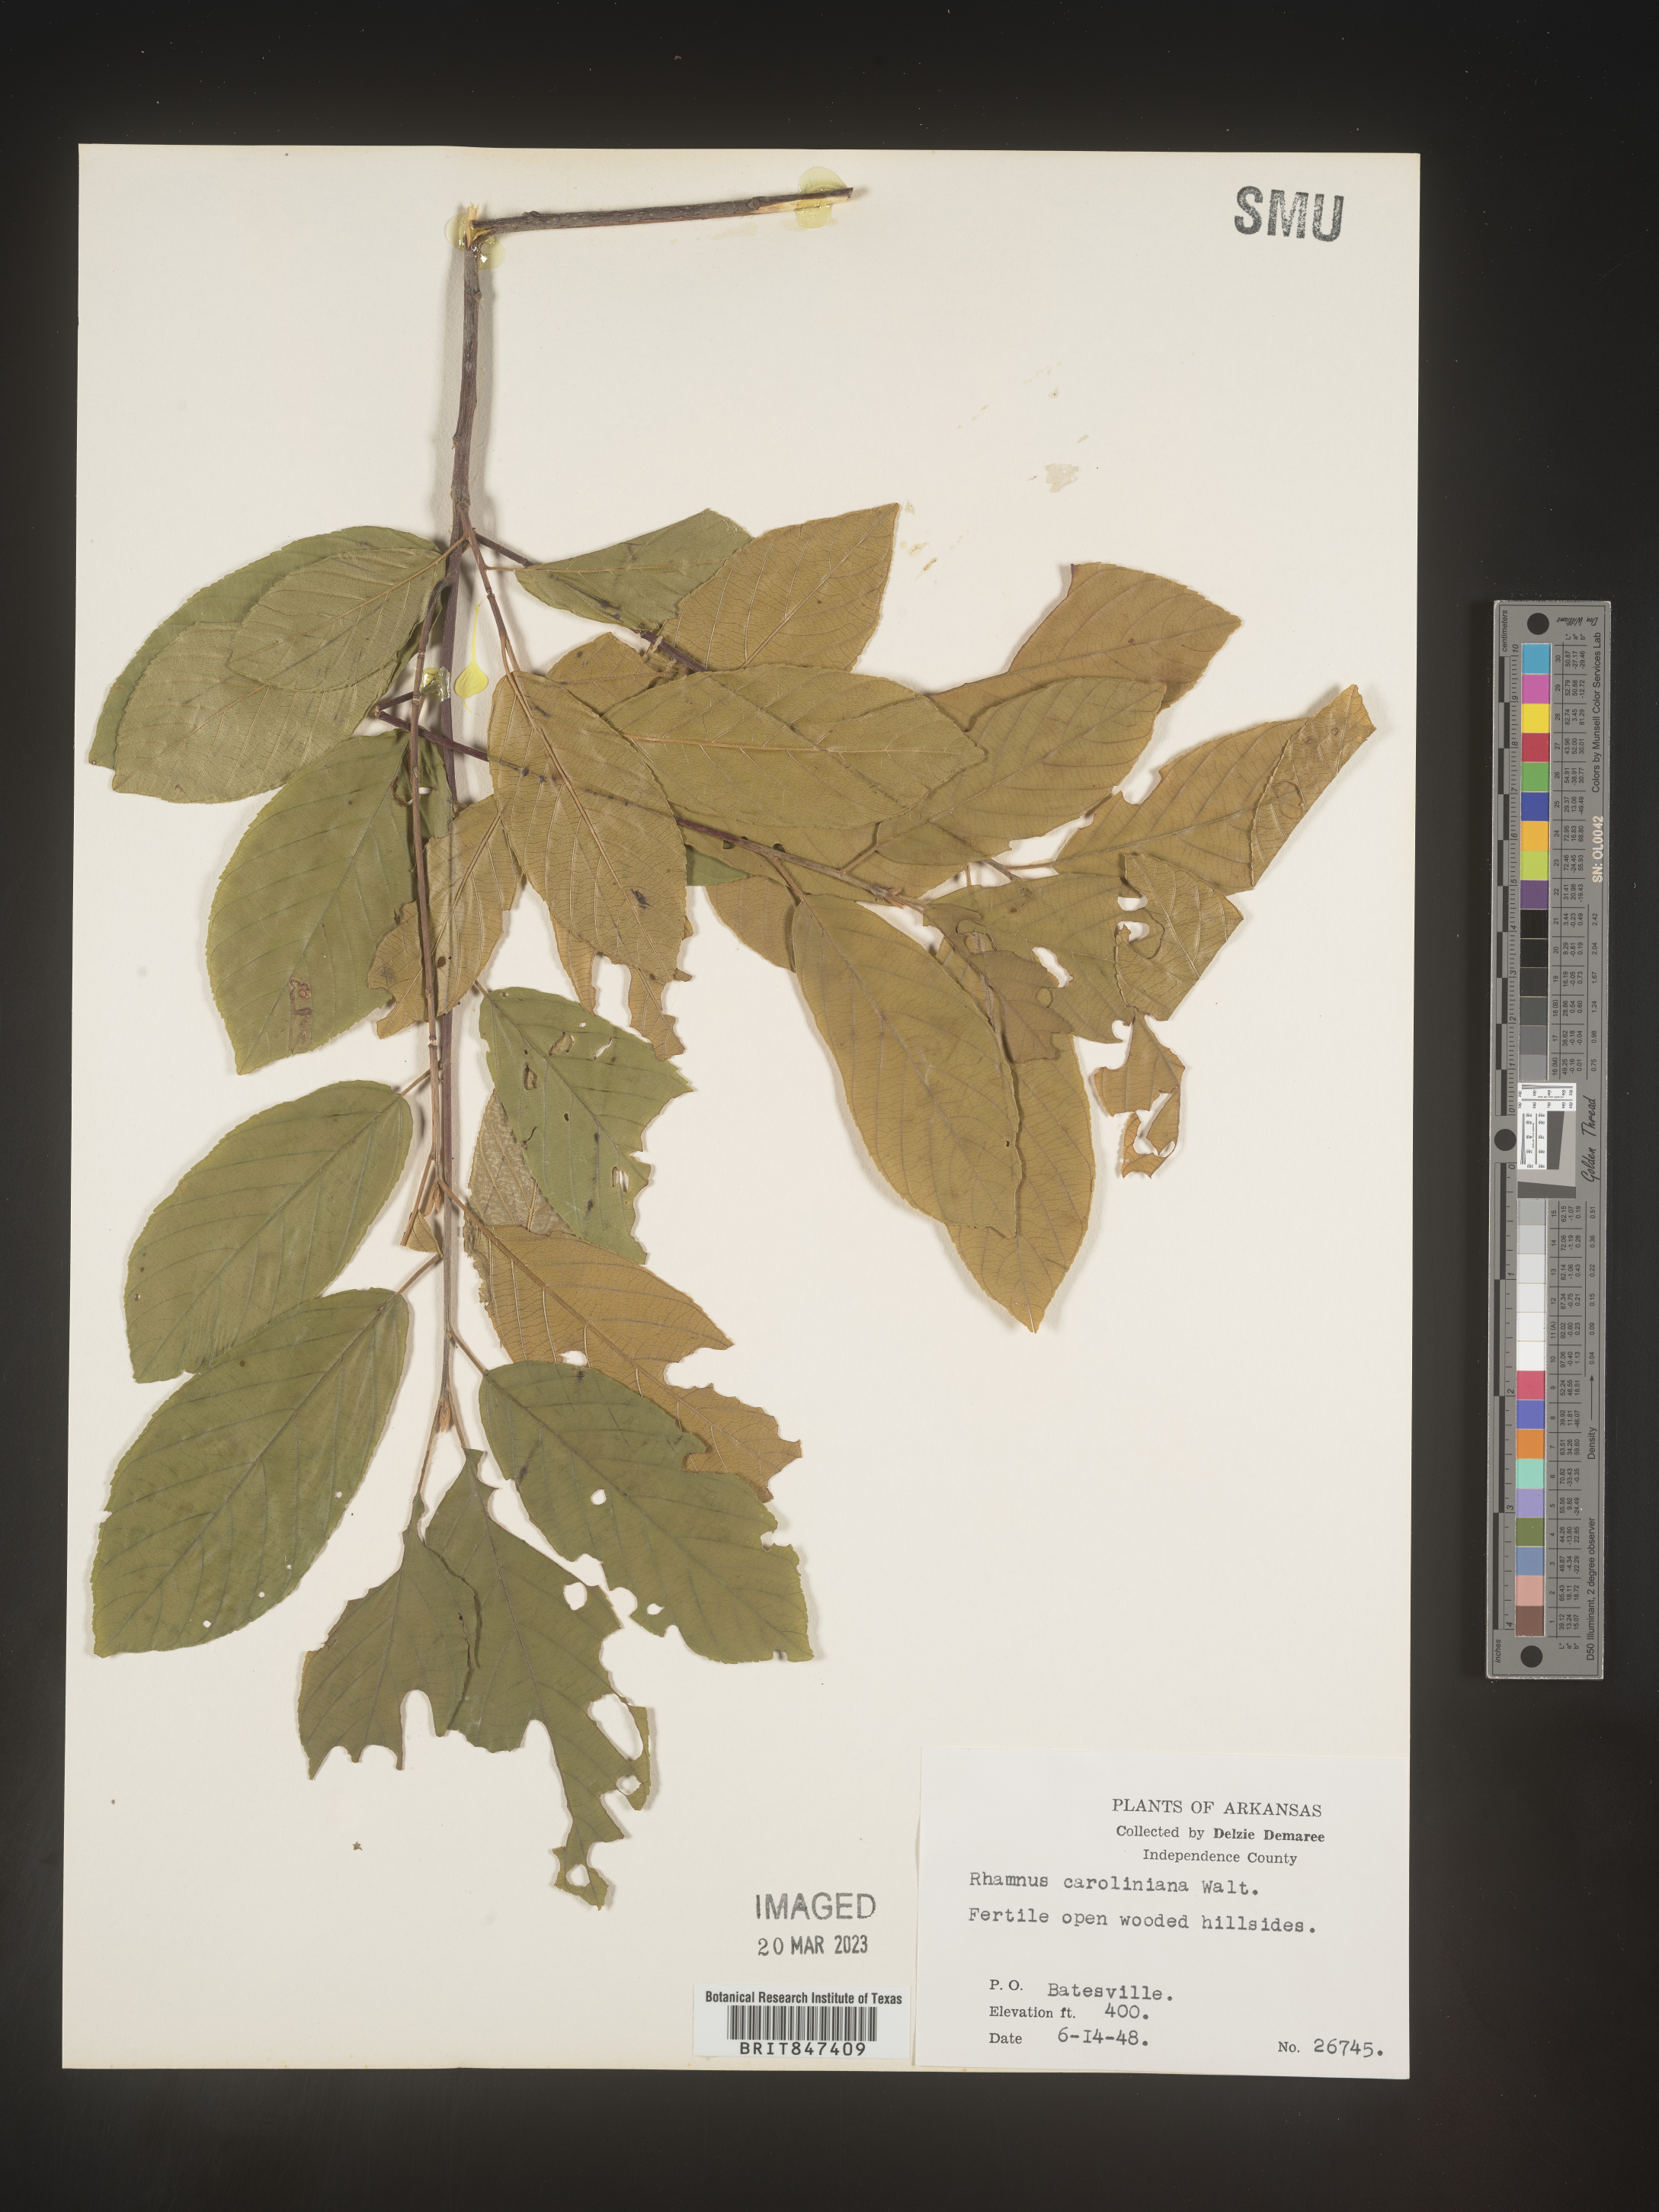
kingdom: Plantae
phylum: Tracheophyta
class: Magnoliopsida
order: Rosales
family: Rhamnaceae
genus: Frangula
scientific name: Frangula caroliniana
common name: Carolina buckthorn
